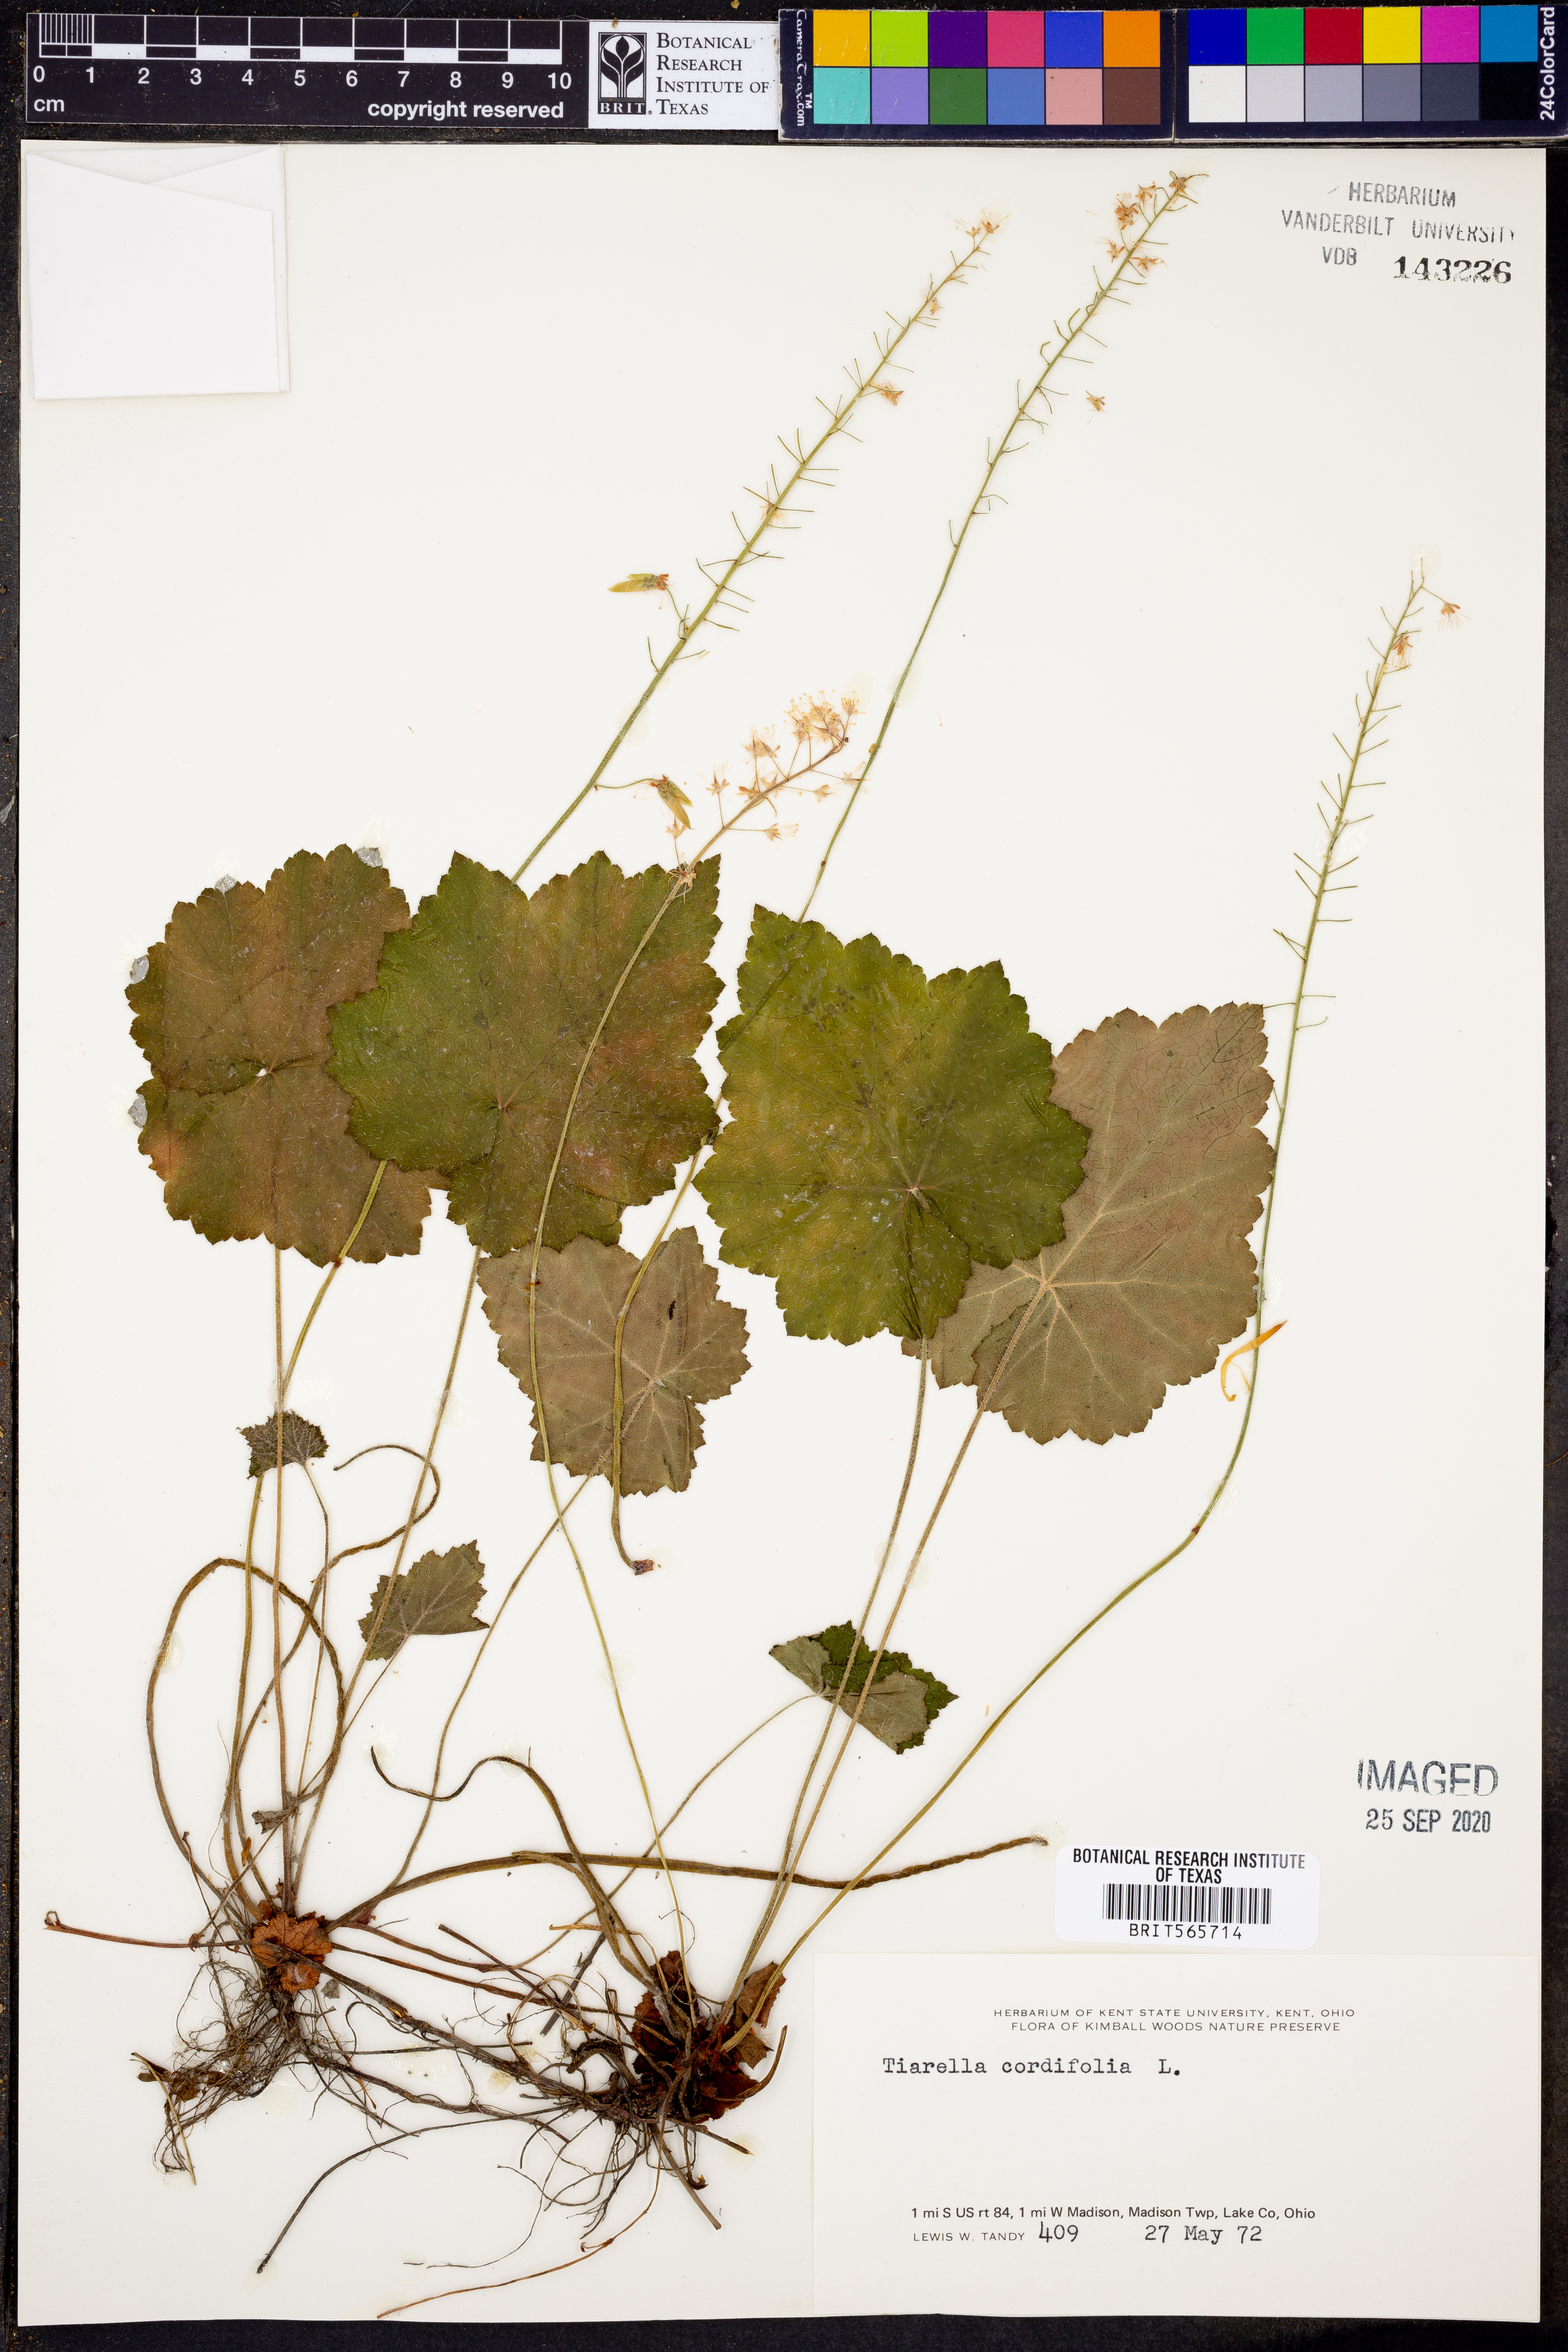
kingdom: Plantae
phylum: Tracheophyta
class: Magnoliopsida
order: Saxifragales
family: Saxifragaceae
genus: Tiarella
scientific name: Tiarella cordifolia
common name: Foamflower
